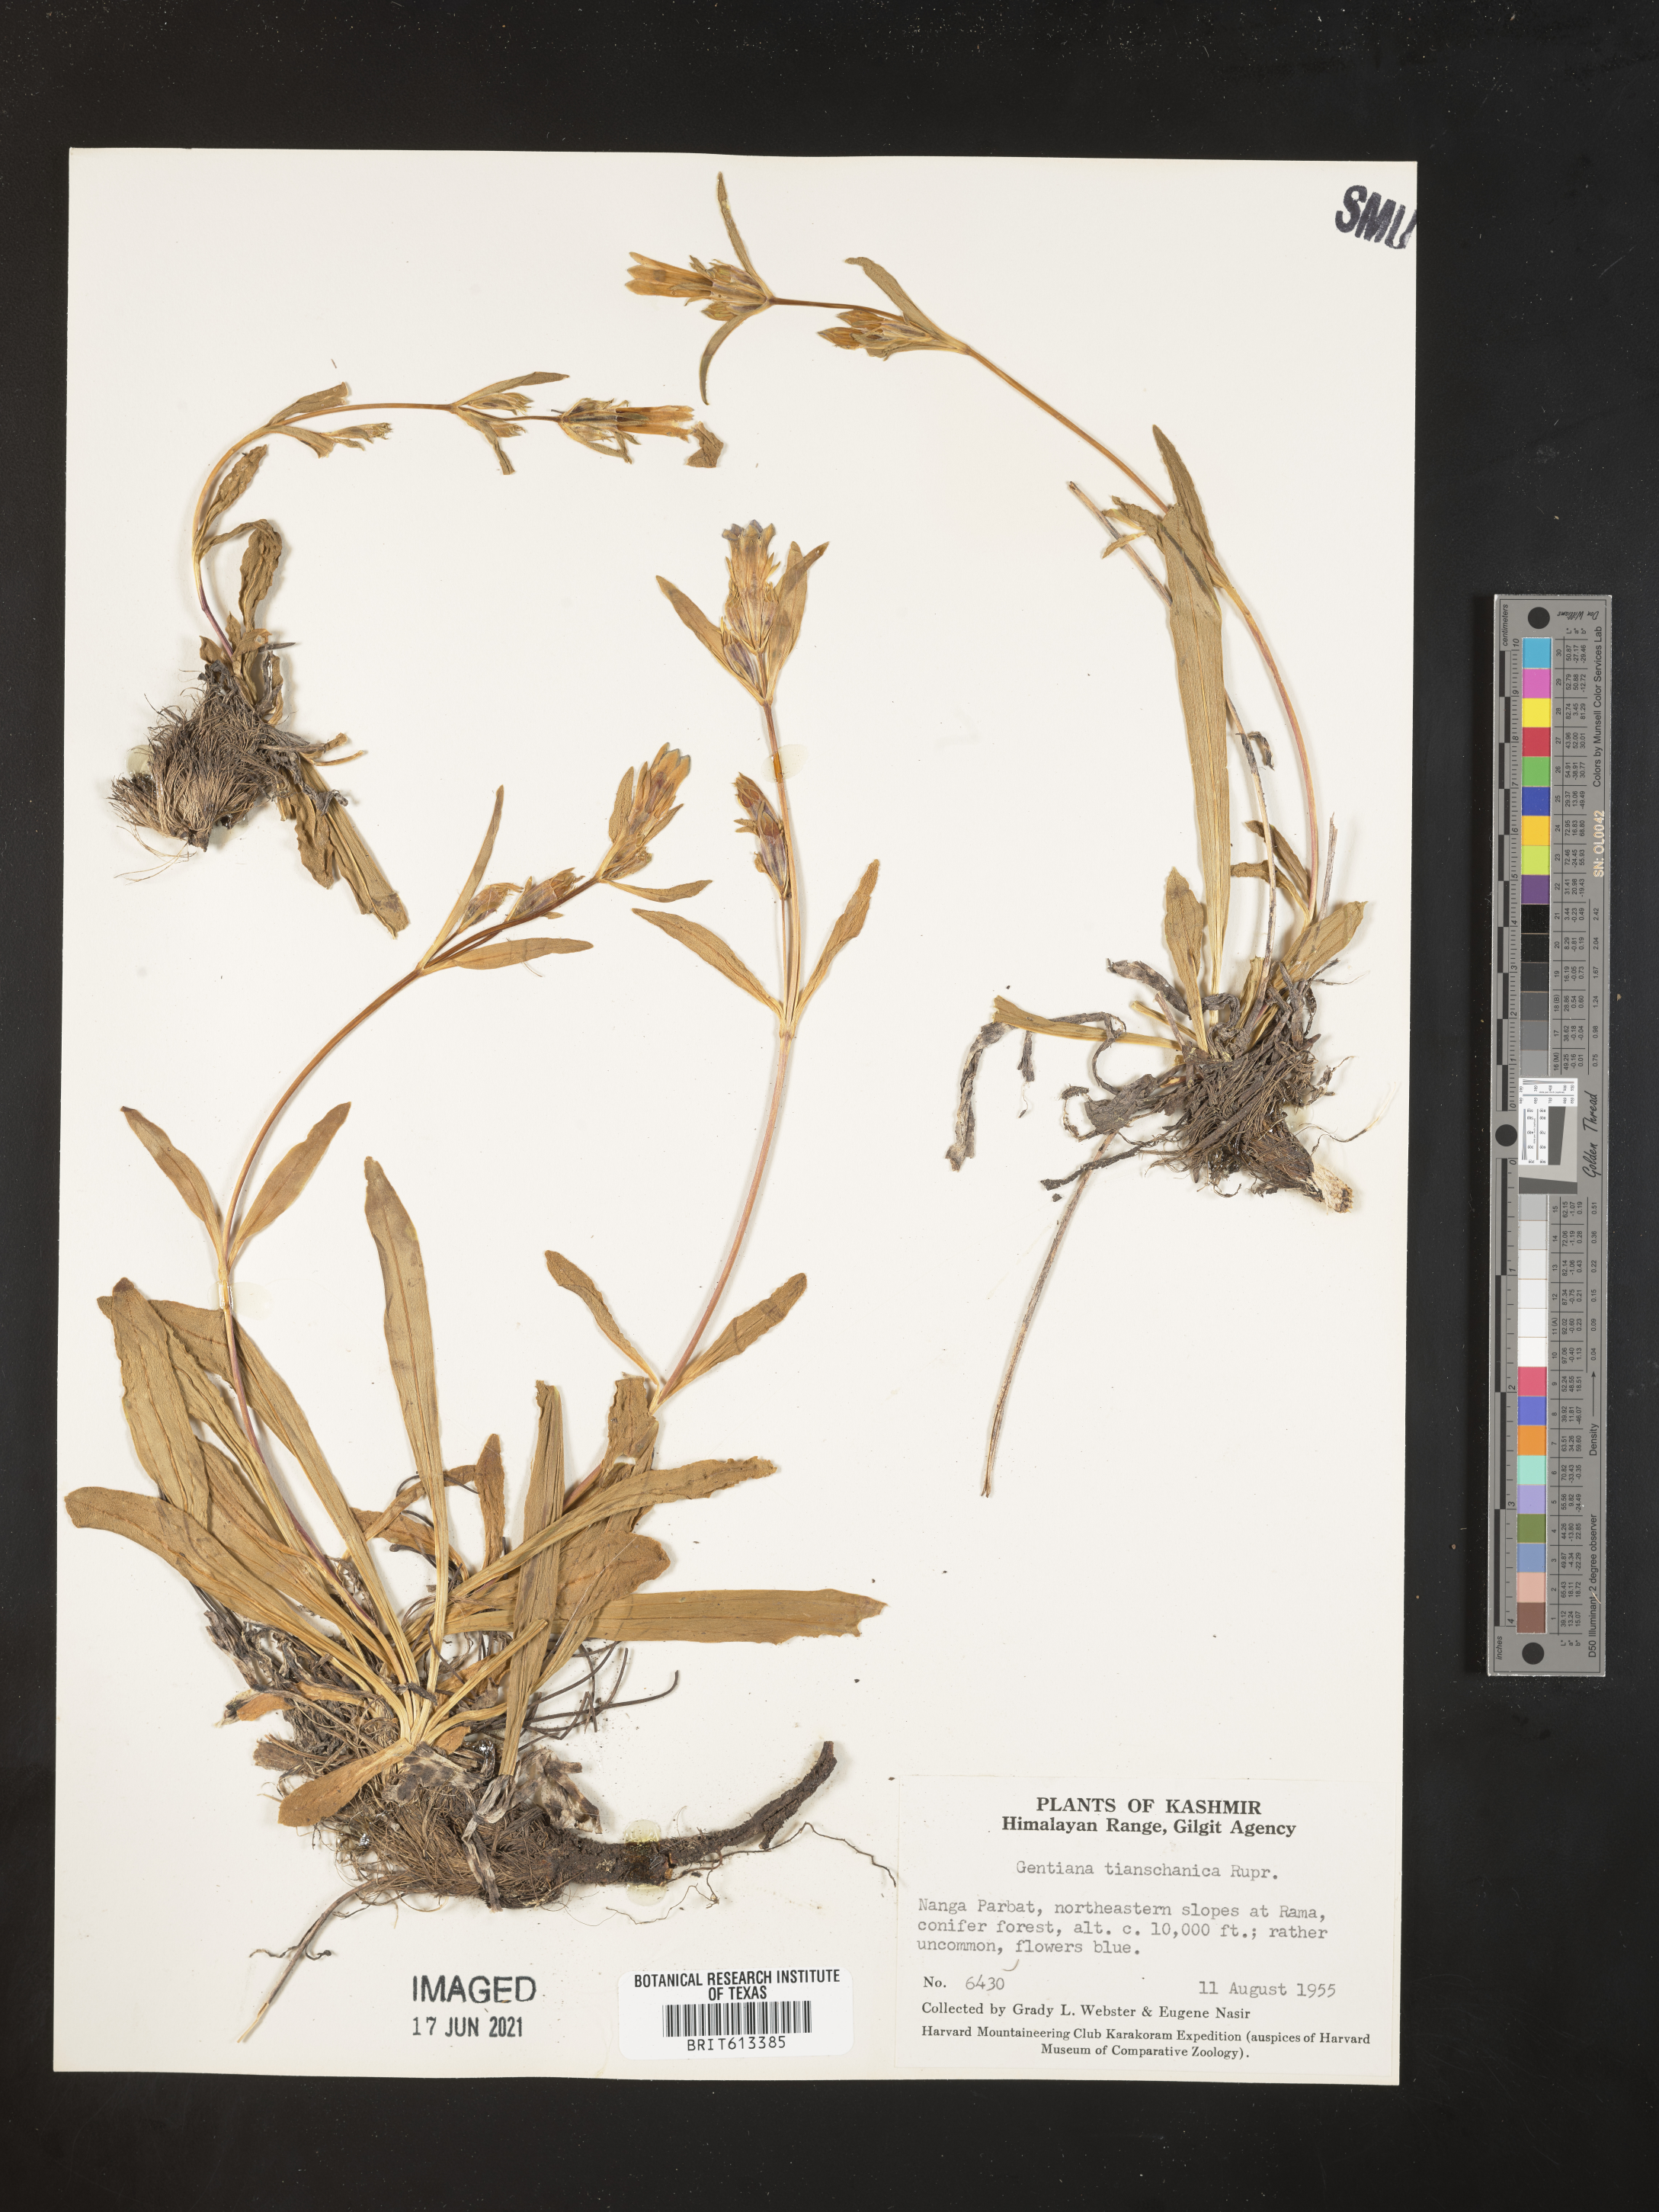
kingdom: Plantae
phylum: Tracheophyta
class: Magnoliopsida
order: Gentianales
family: Gentianaceae
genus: Gentiana
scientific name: Gentiana kirilowii
